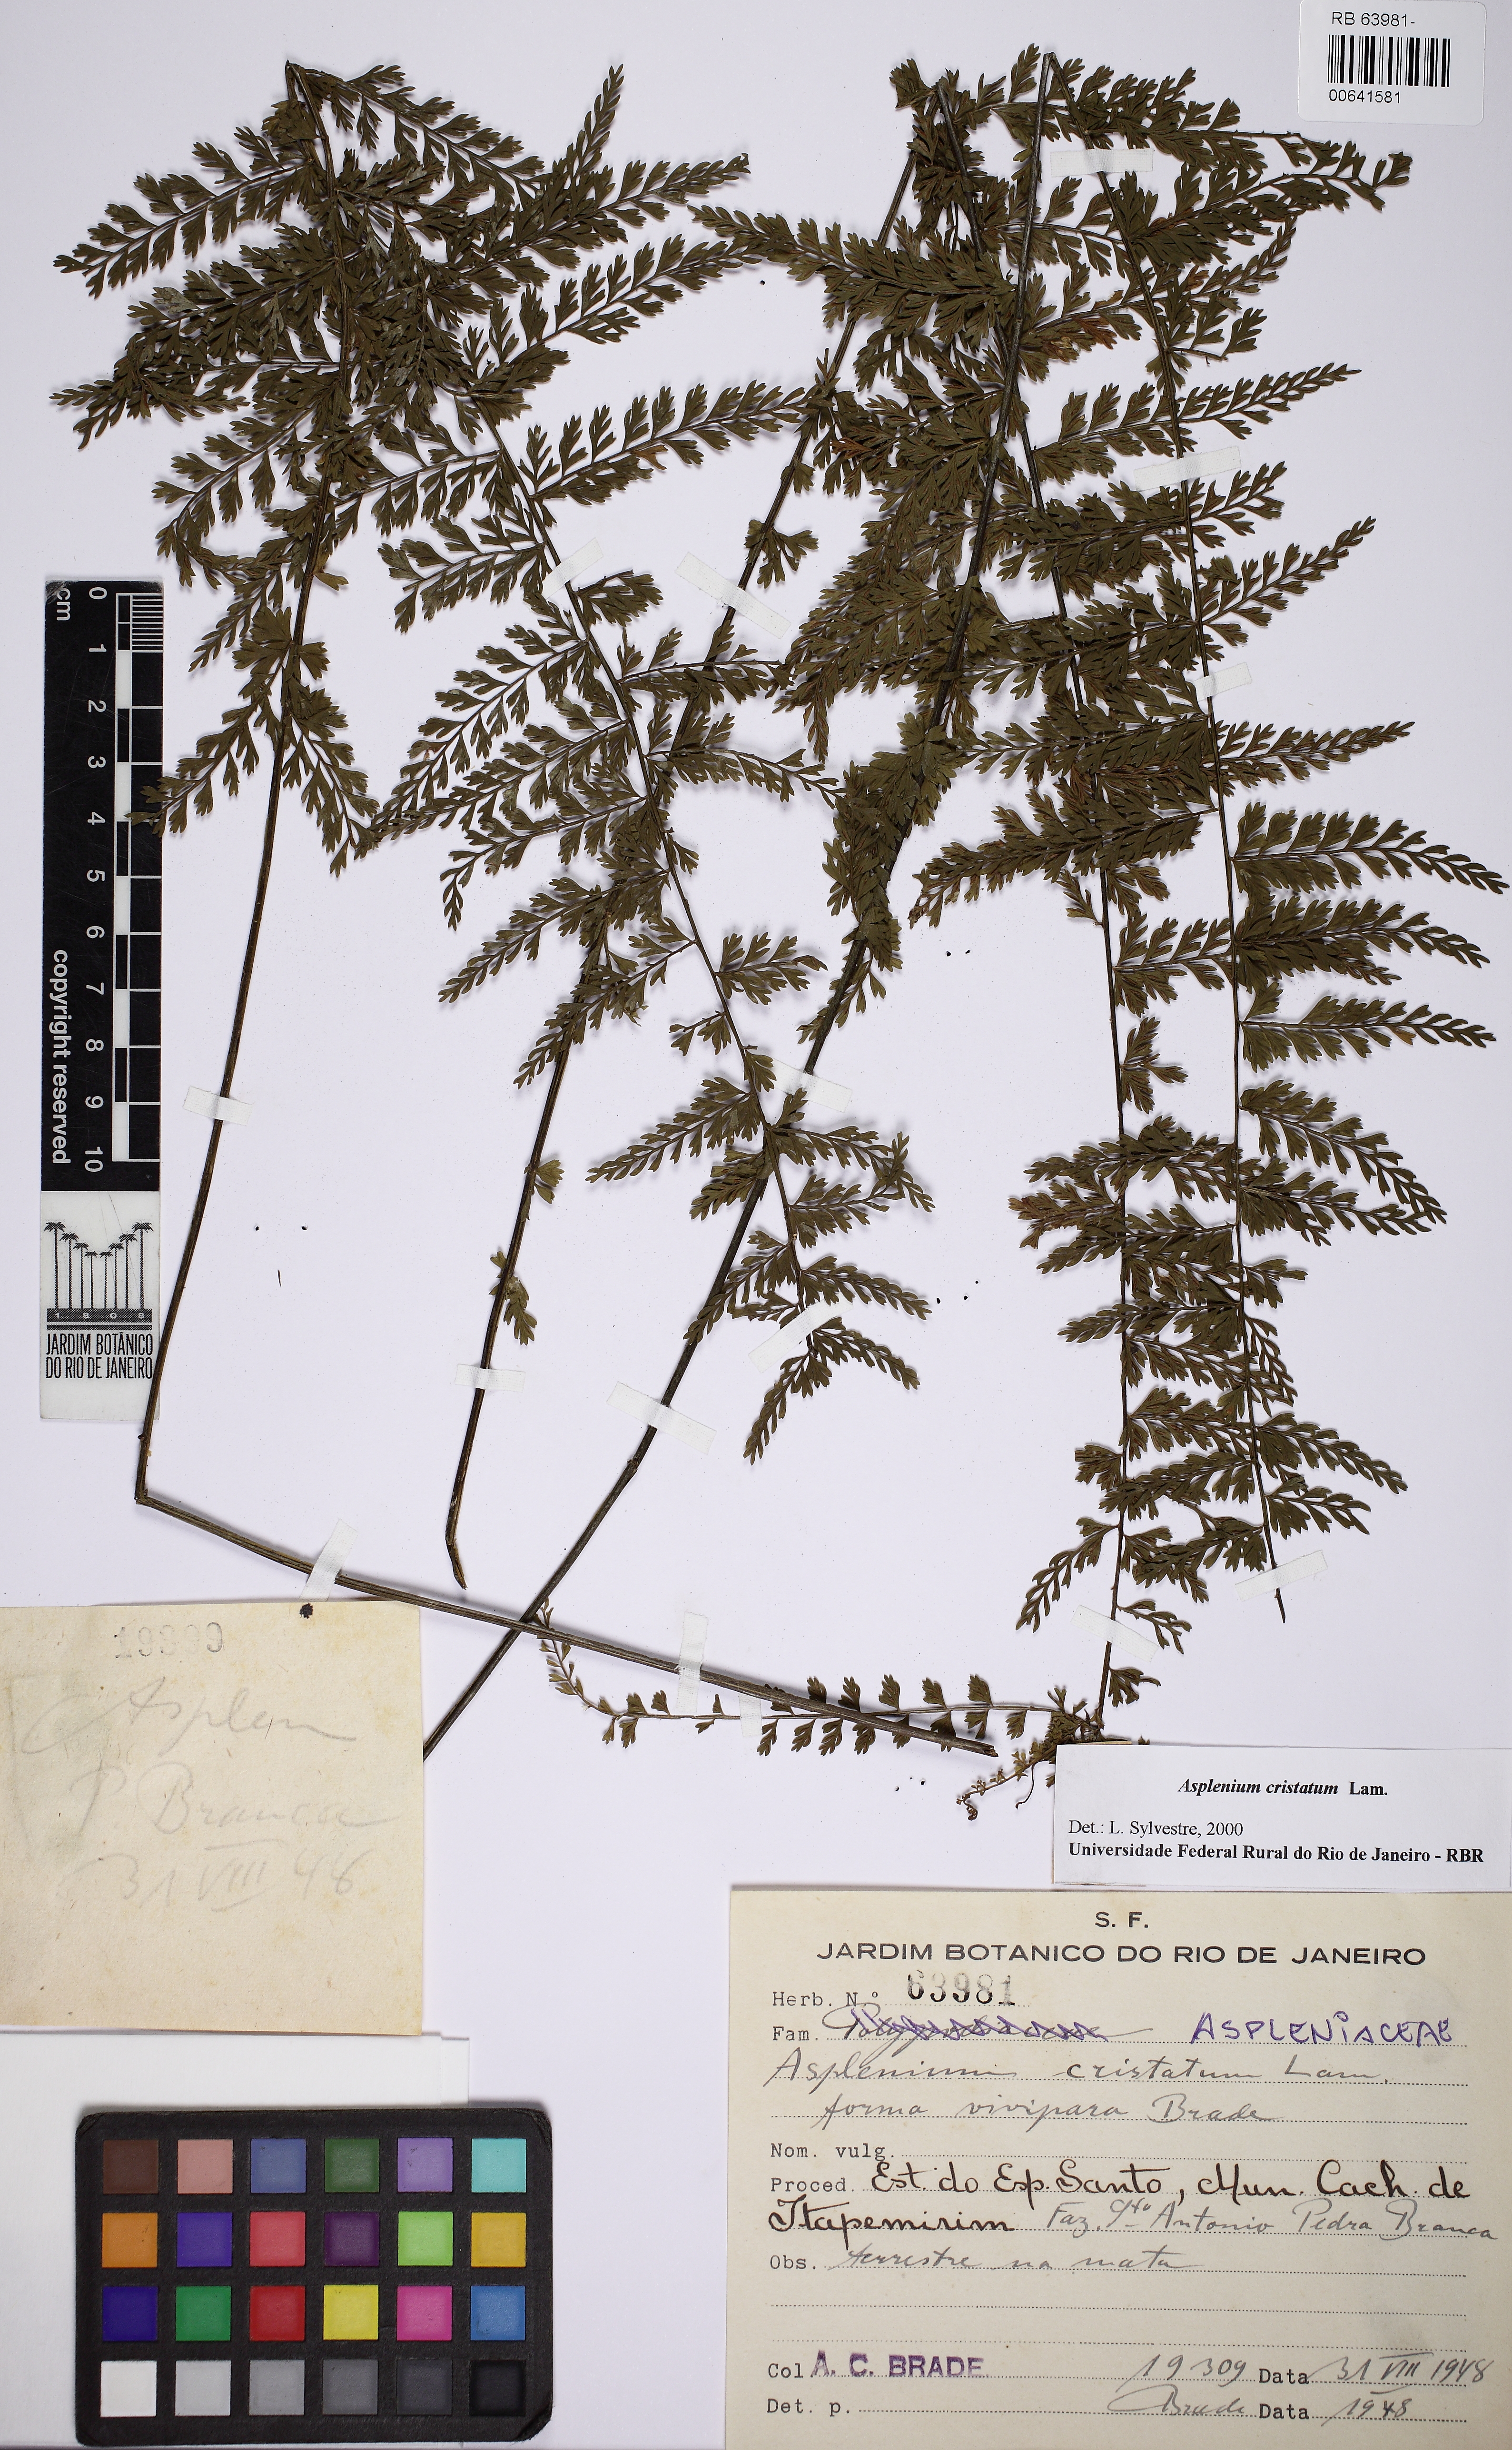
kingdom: Plantae
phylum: Tracheophyta
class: Polypodiopsida
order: Polypodiales
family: Aspleniaceae
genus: Asplenium
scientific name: Asplenium cristatum
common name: Parsley spleenwort
